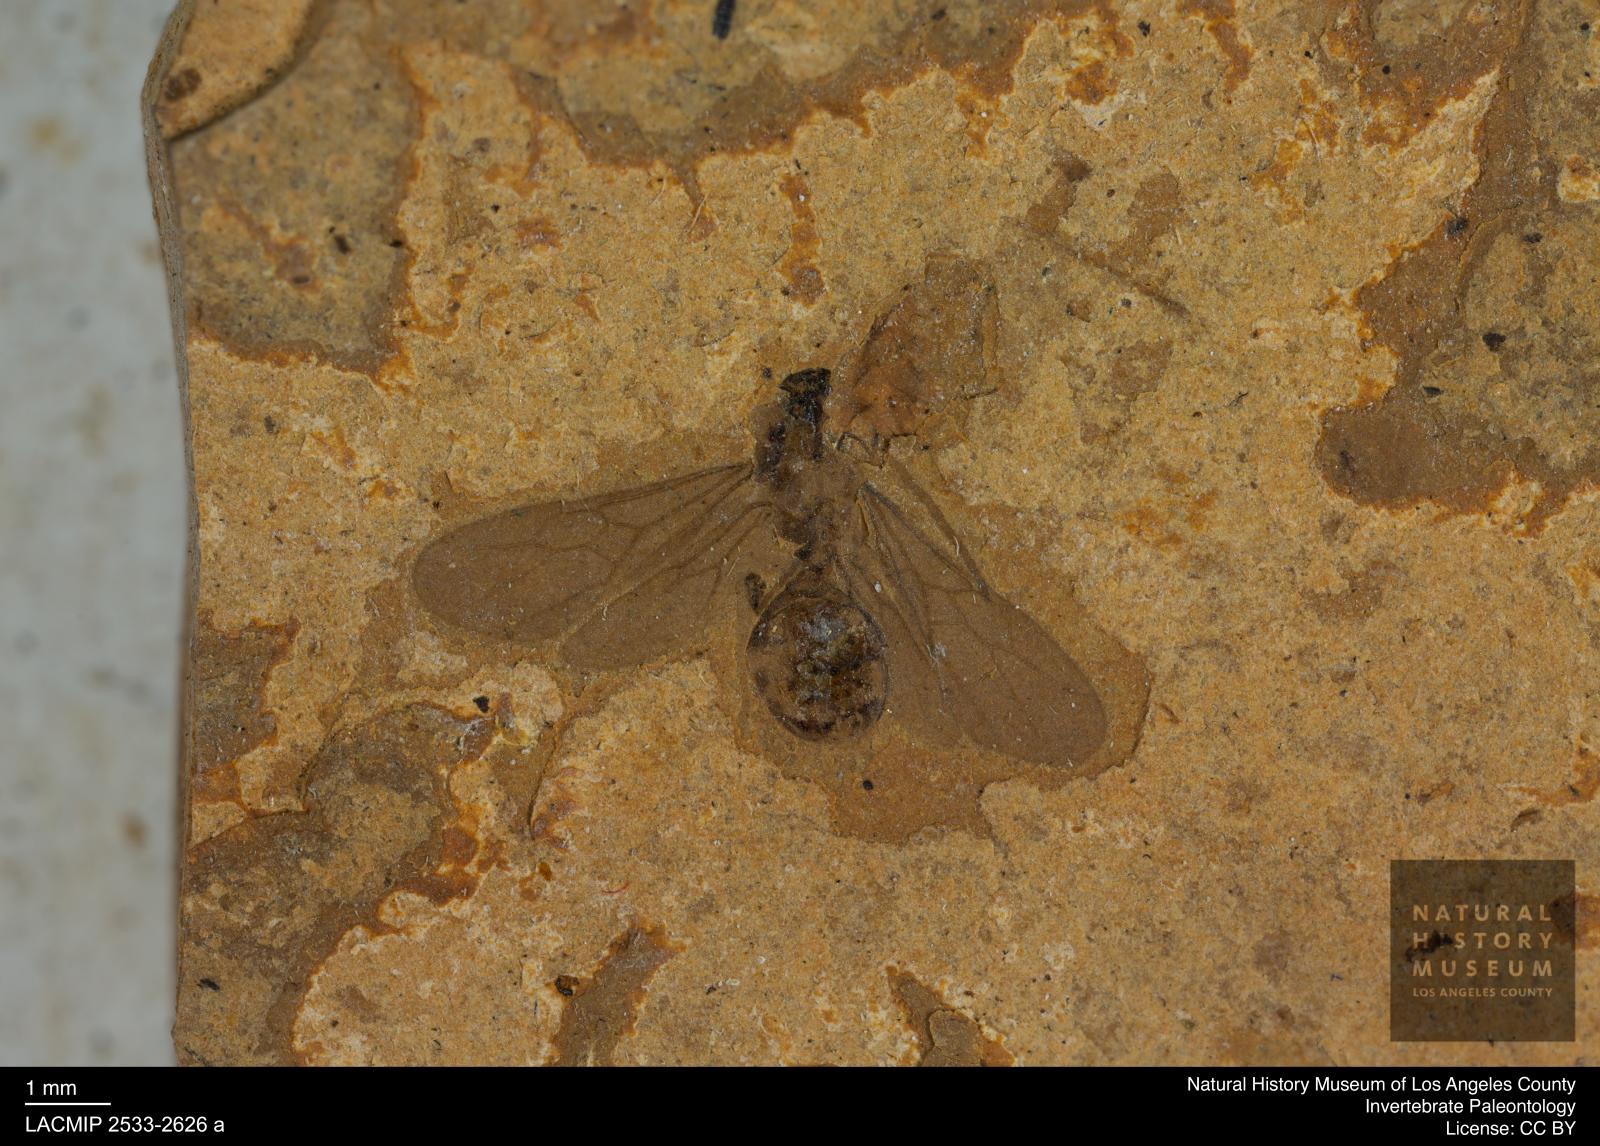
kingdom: Animalia
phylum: Arthropoda
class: Insecta
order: Hymenoptera
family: Formicidae
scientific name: Formicidae
